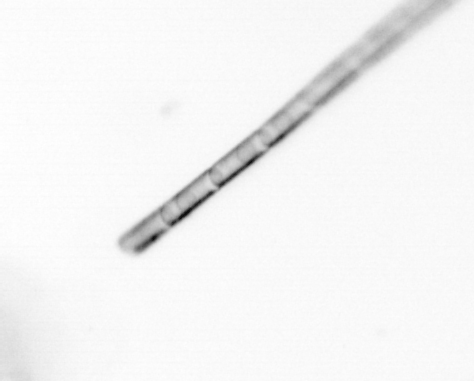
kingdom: Chromista
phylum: Ochrophyta
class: Bacillariophyceae
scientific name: Bacillariophyceae
